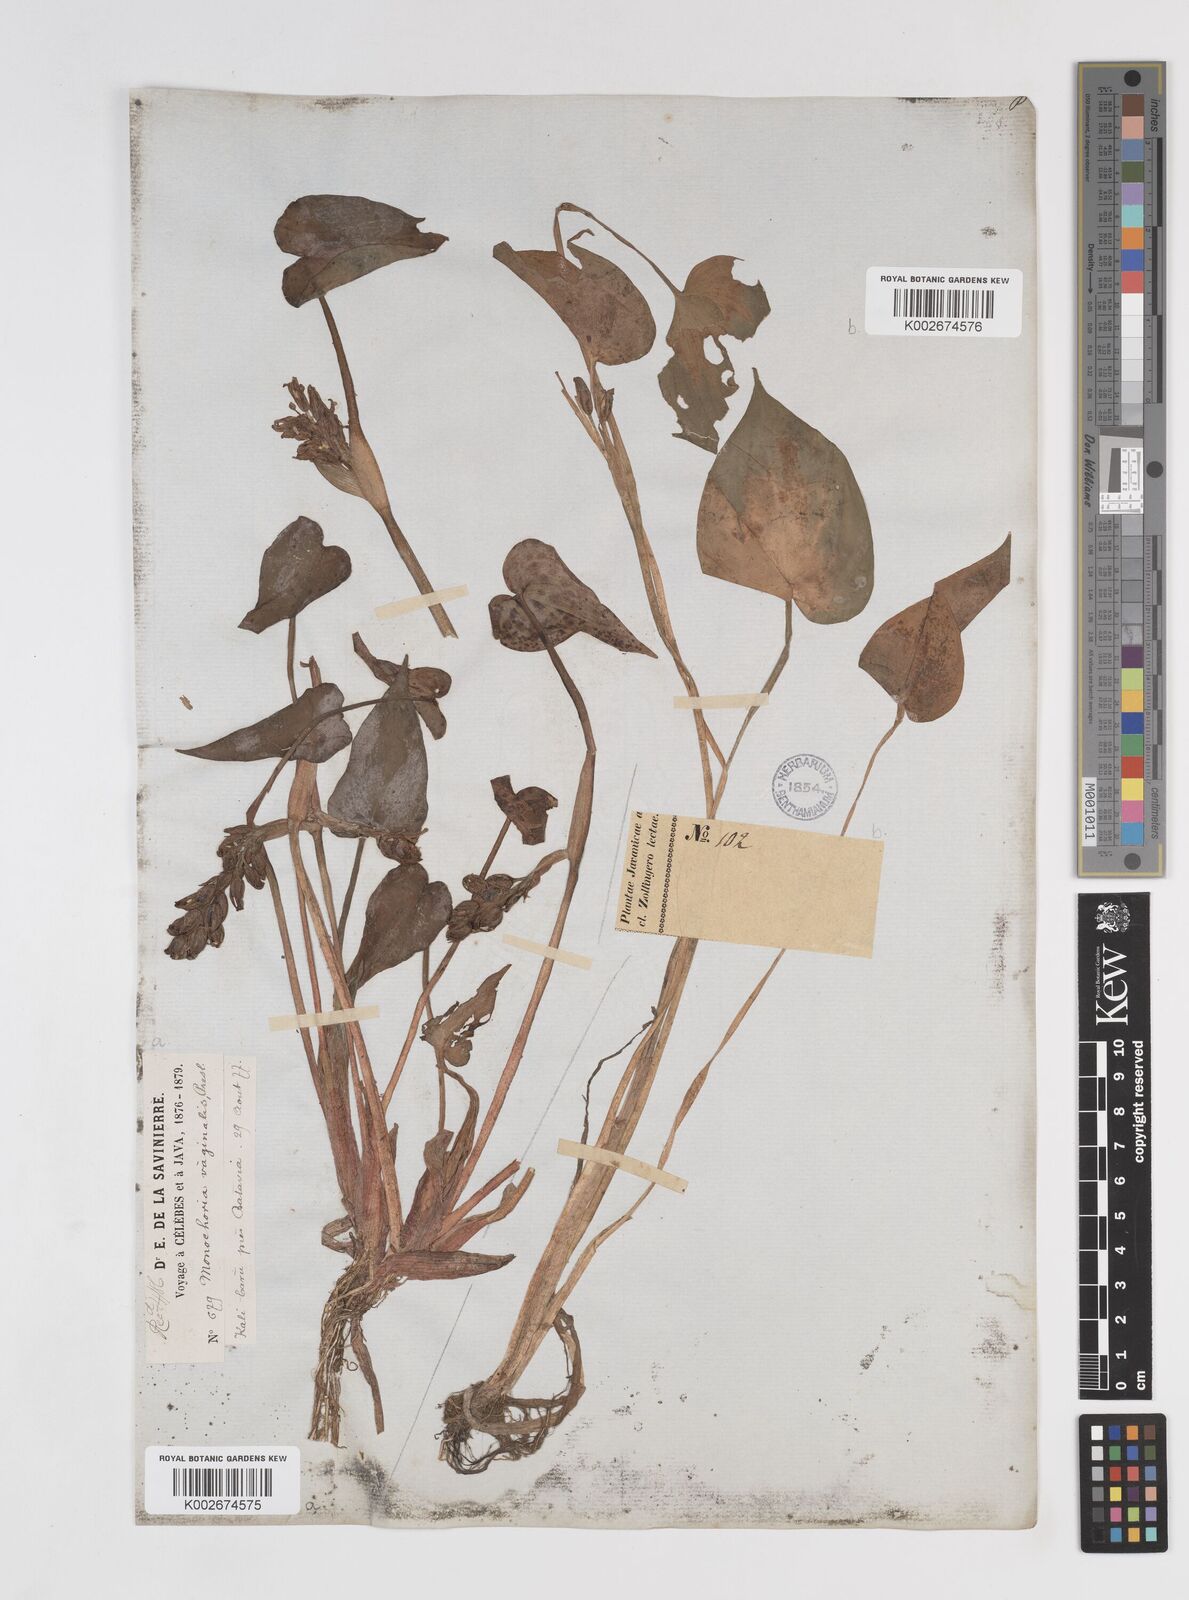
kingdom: Plantae
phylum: Tracheophyta
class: Liliopsida
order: Commelinales
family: Pontederiaceae
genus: Pontederia
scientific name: Pontederia vaginalis
